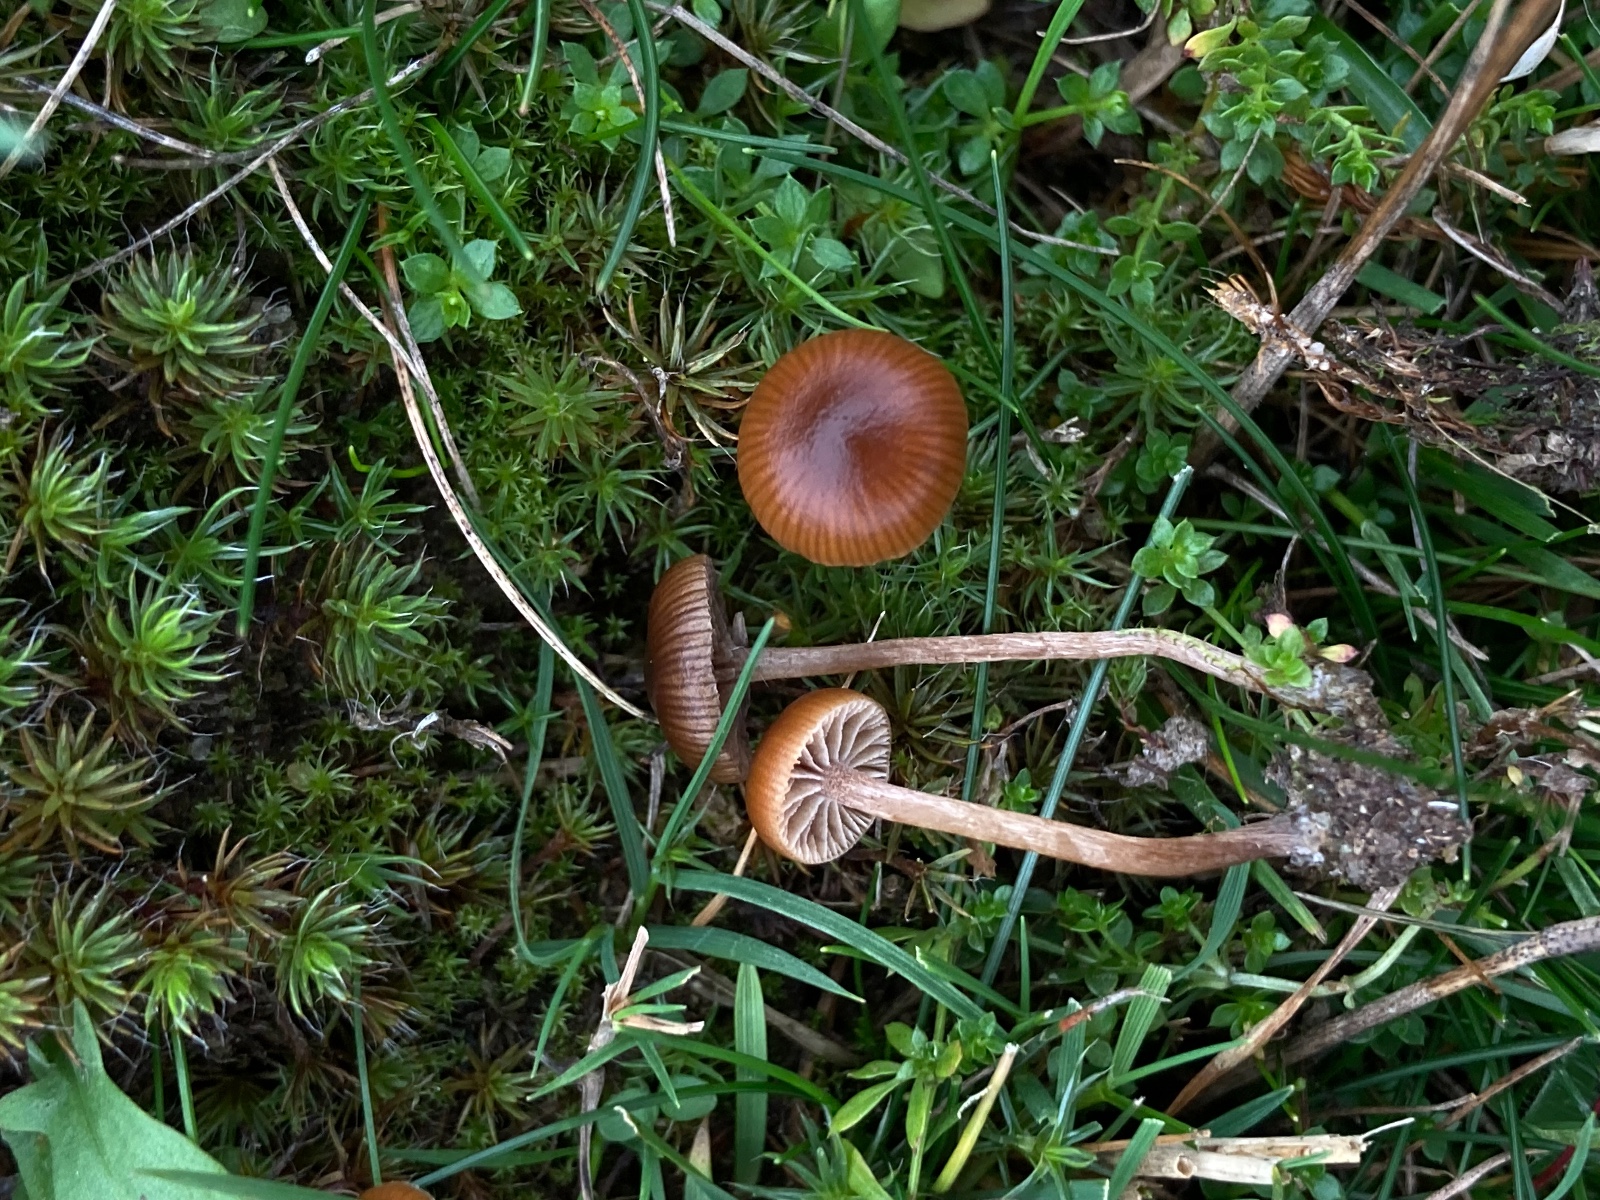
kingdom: Fungi
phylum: Basidiomycota
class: Agaricomycetes
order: Agaricales
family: Strophariaceae
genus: Deconica
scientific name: Deconica montana
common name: rødbrun stråhat
